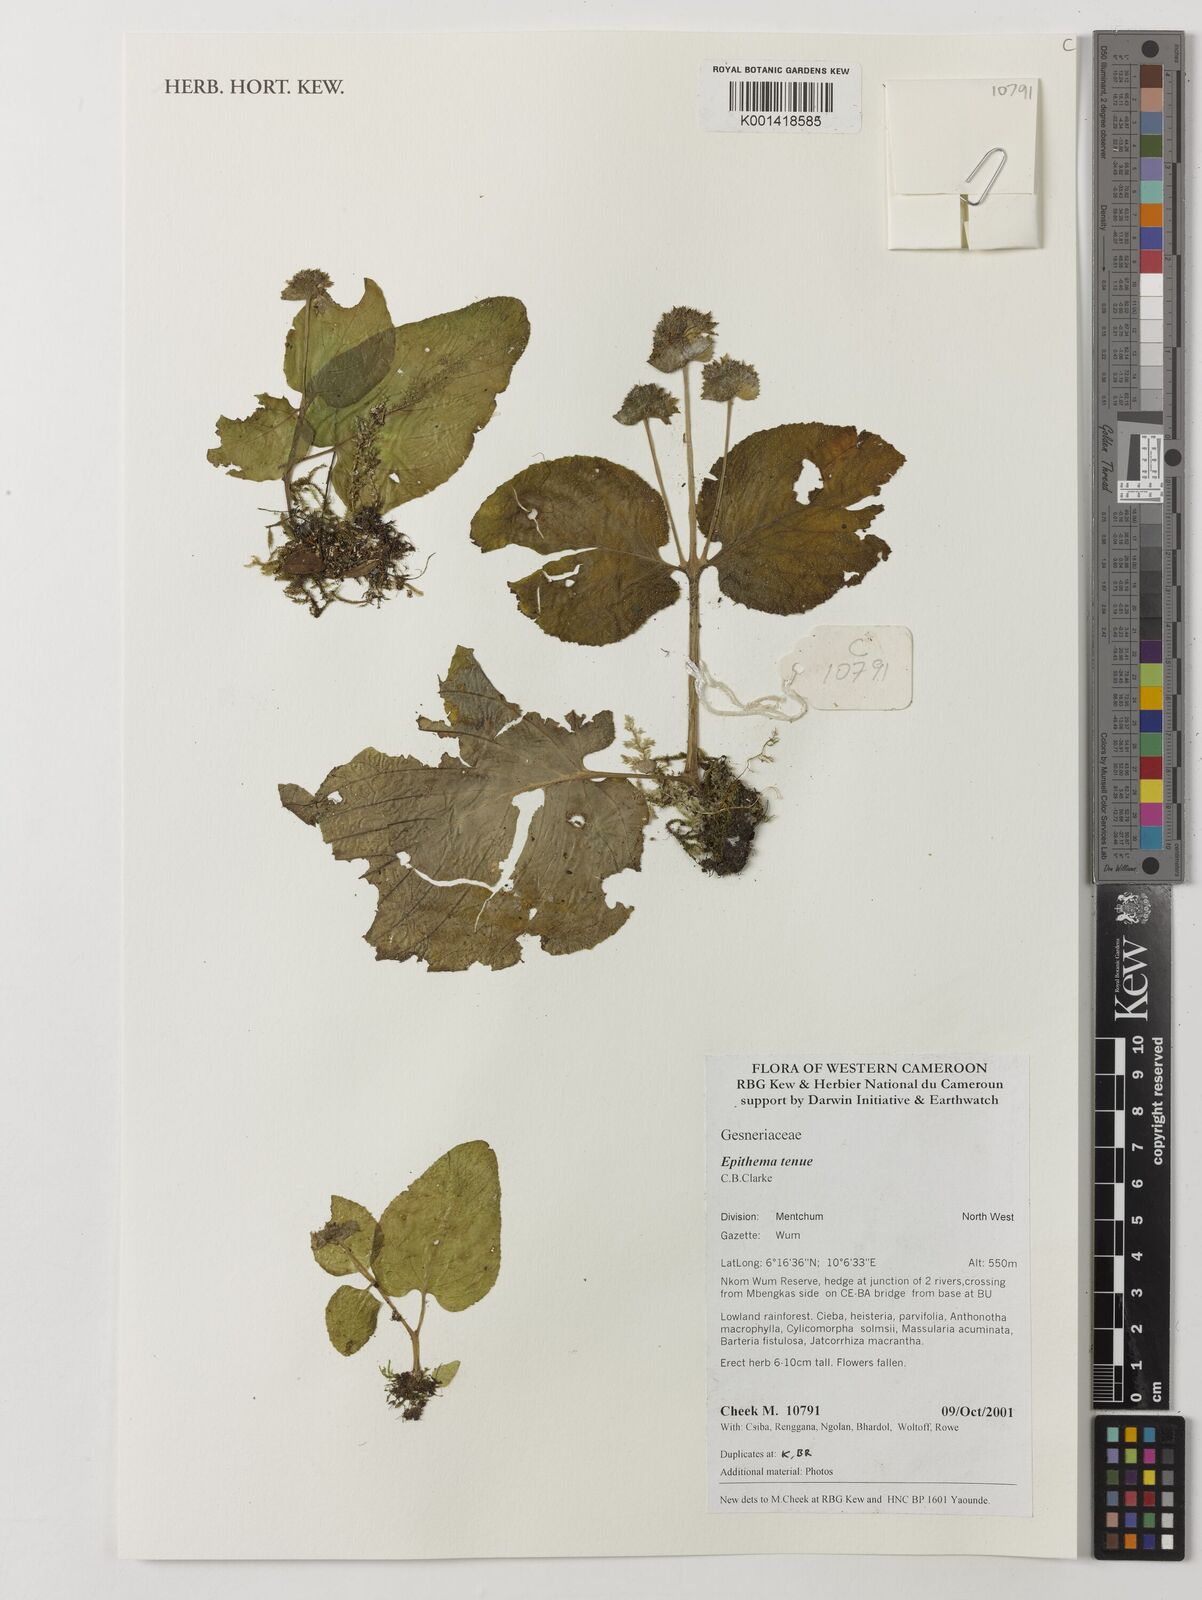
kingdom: Plantae
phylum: Tracheophyta
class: Magnoliopsida
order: Lamiales
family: Gesneriaceae
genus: Epithema
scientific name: Epithema tenue
